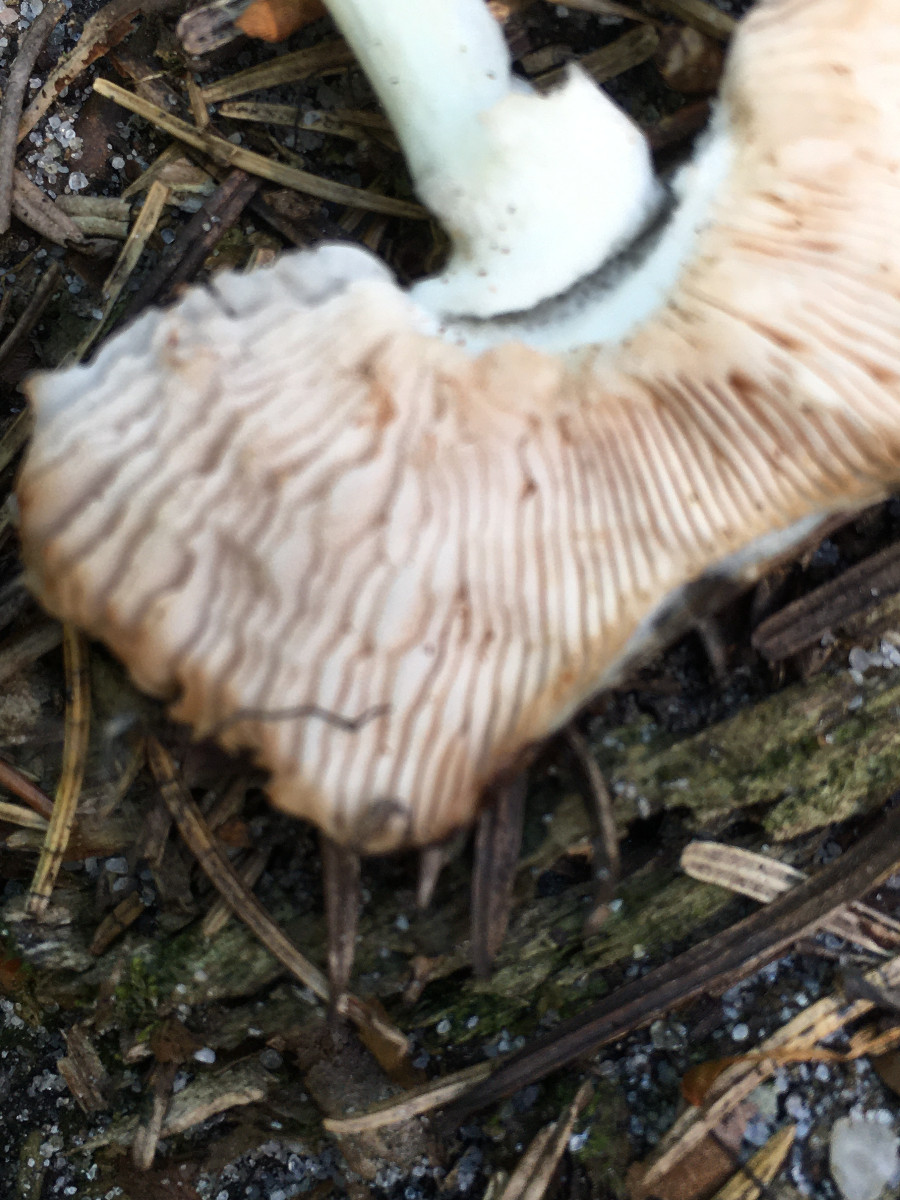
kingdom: Fungi
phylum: Basidiomycota
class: Agaricomycetes
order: Agaricales
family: Pluteaceae
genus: Pluteus
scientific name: Pluteus cervinus
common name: sodfarvet skærmhat
